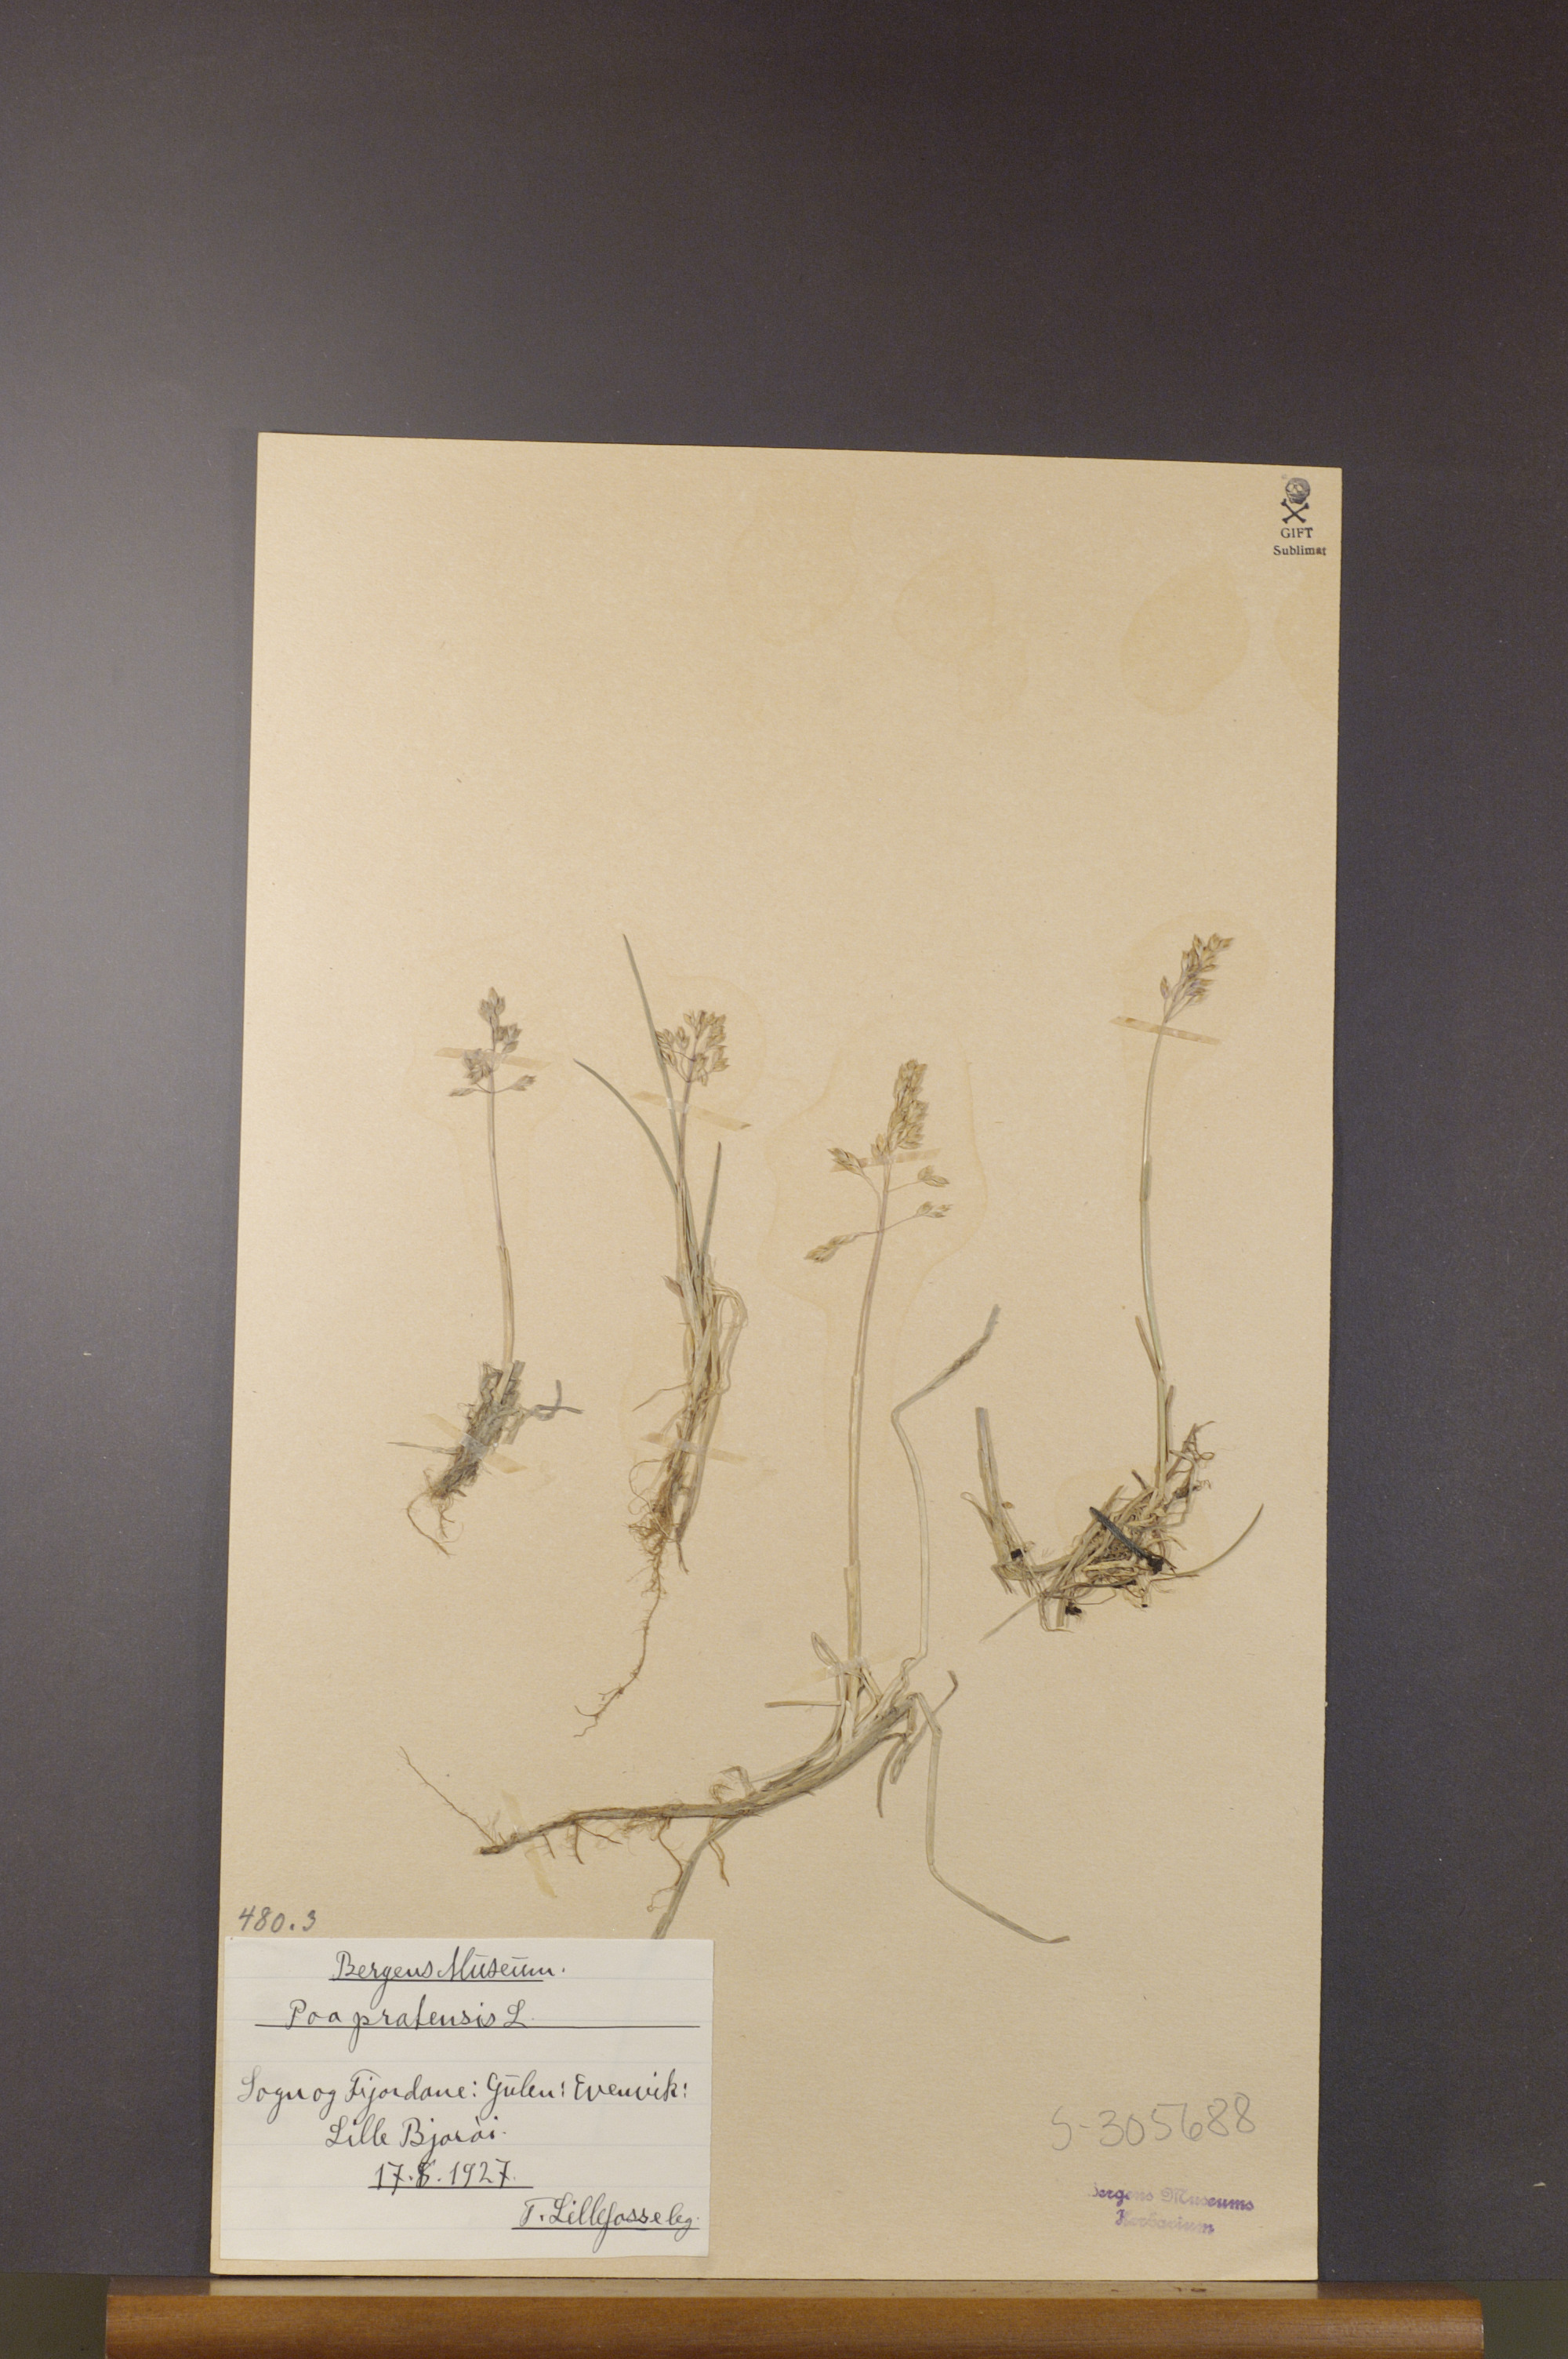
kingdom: Plantae
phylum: Tracheophyta
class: Liliopsida
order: Poales
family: Poaceae
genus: Poa
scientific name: Poa pratensis
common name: Kentucky bluegrass
